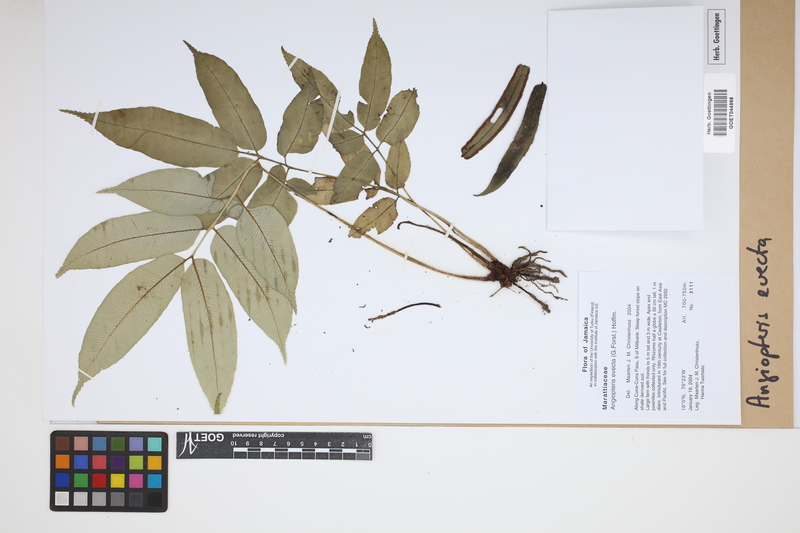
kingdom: Plantae
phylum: Tracheophyta
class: Polypodiopsida
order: Marattiales
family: Marattiaceae
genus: Angiopteris
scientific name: Angiopteris evecta
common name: Mule's-foot fern
